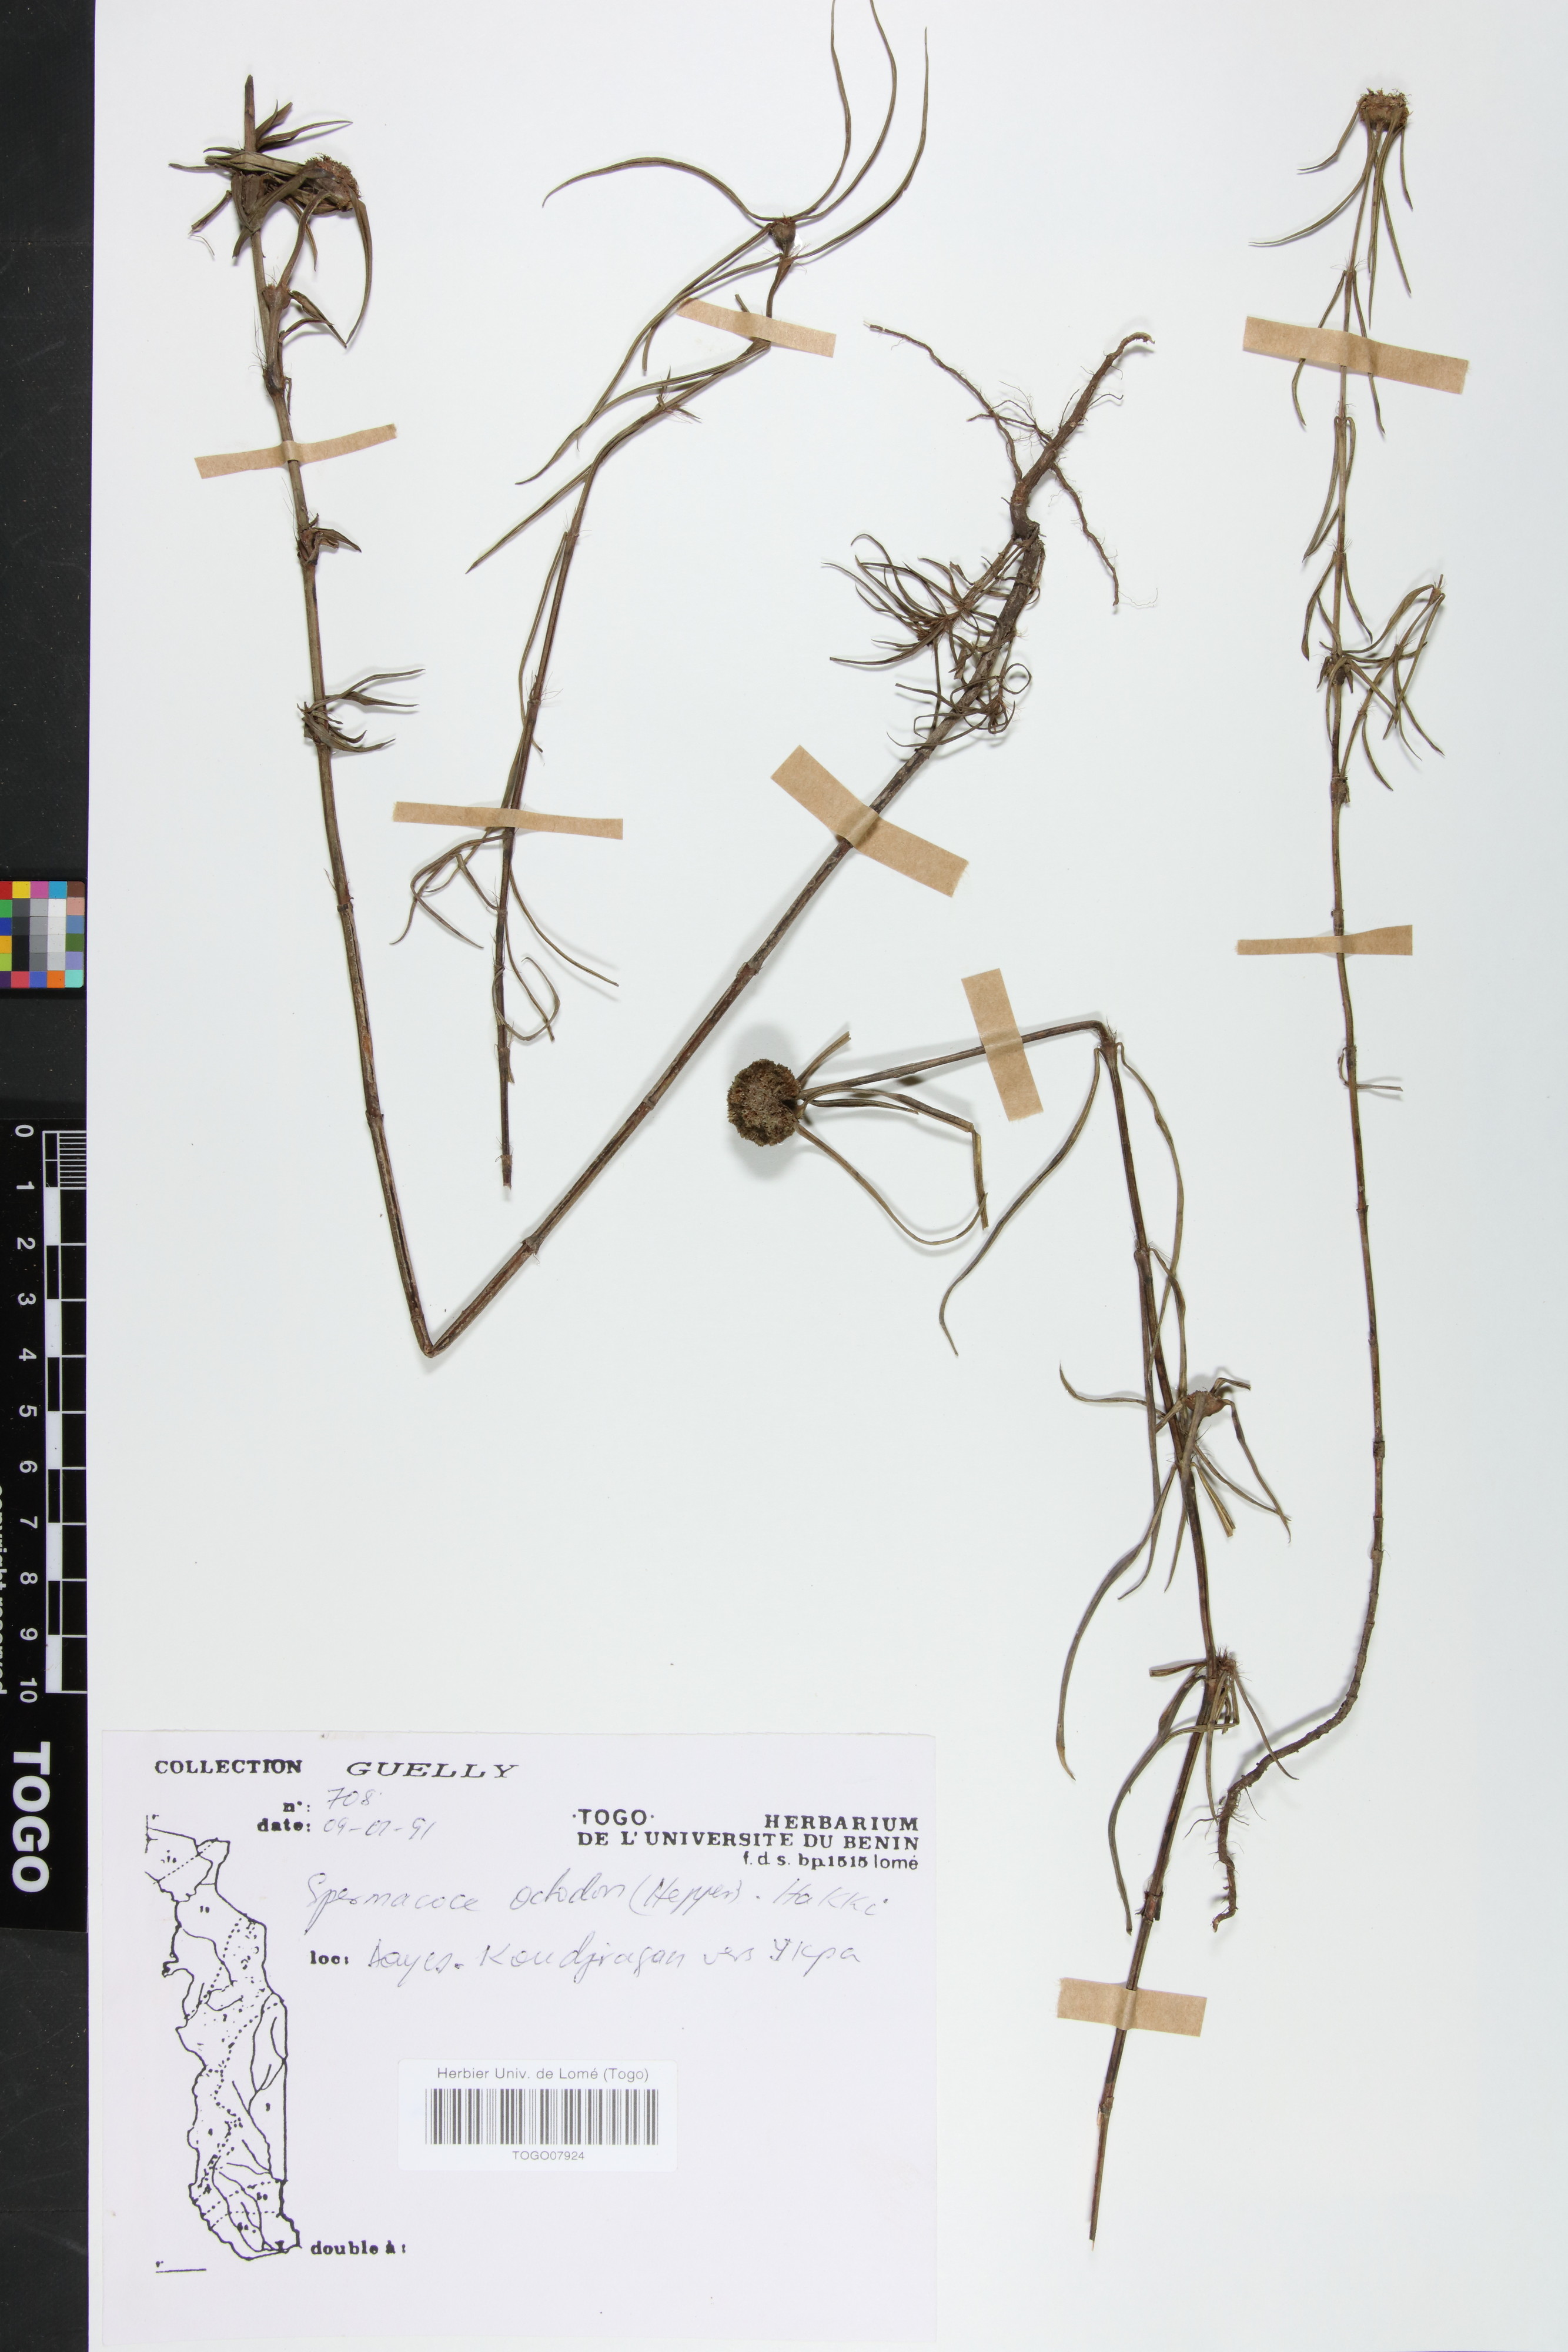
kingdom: Plantae
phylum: Tracheophyta
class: Magnoliopsida
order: Gentianales
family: Rubiaceae
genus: Spermacoce
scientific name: Spermacoce octodon
